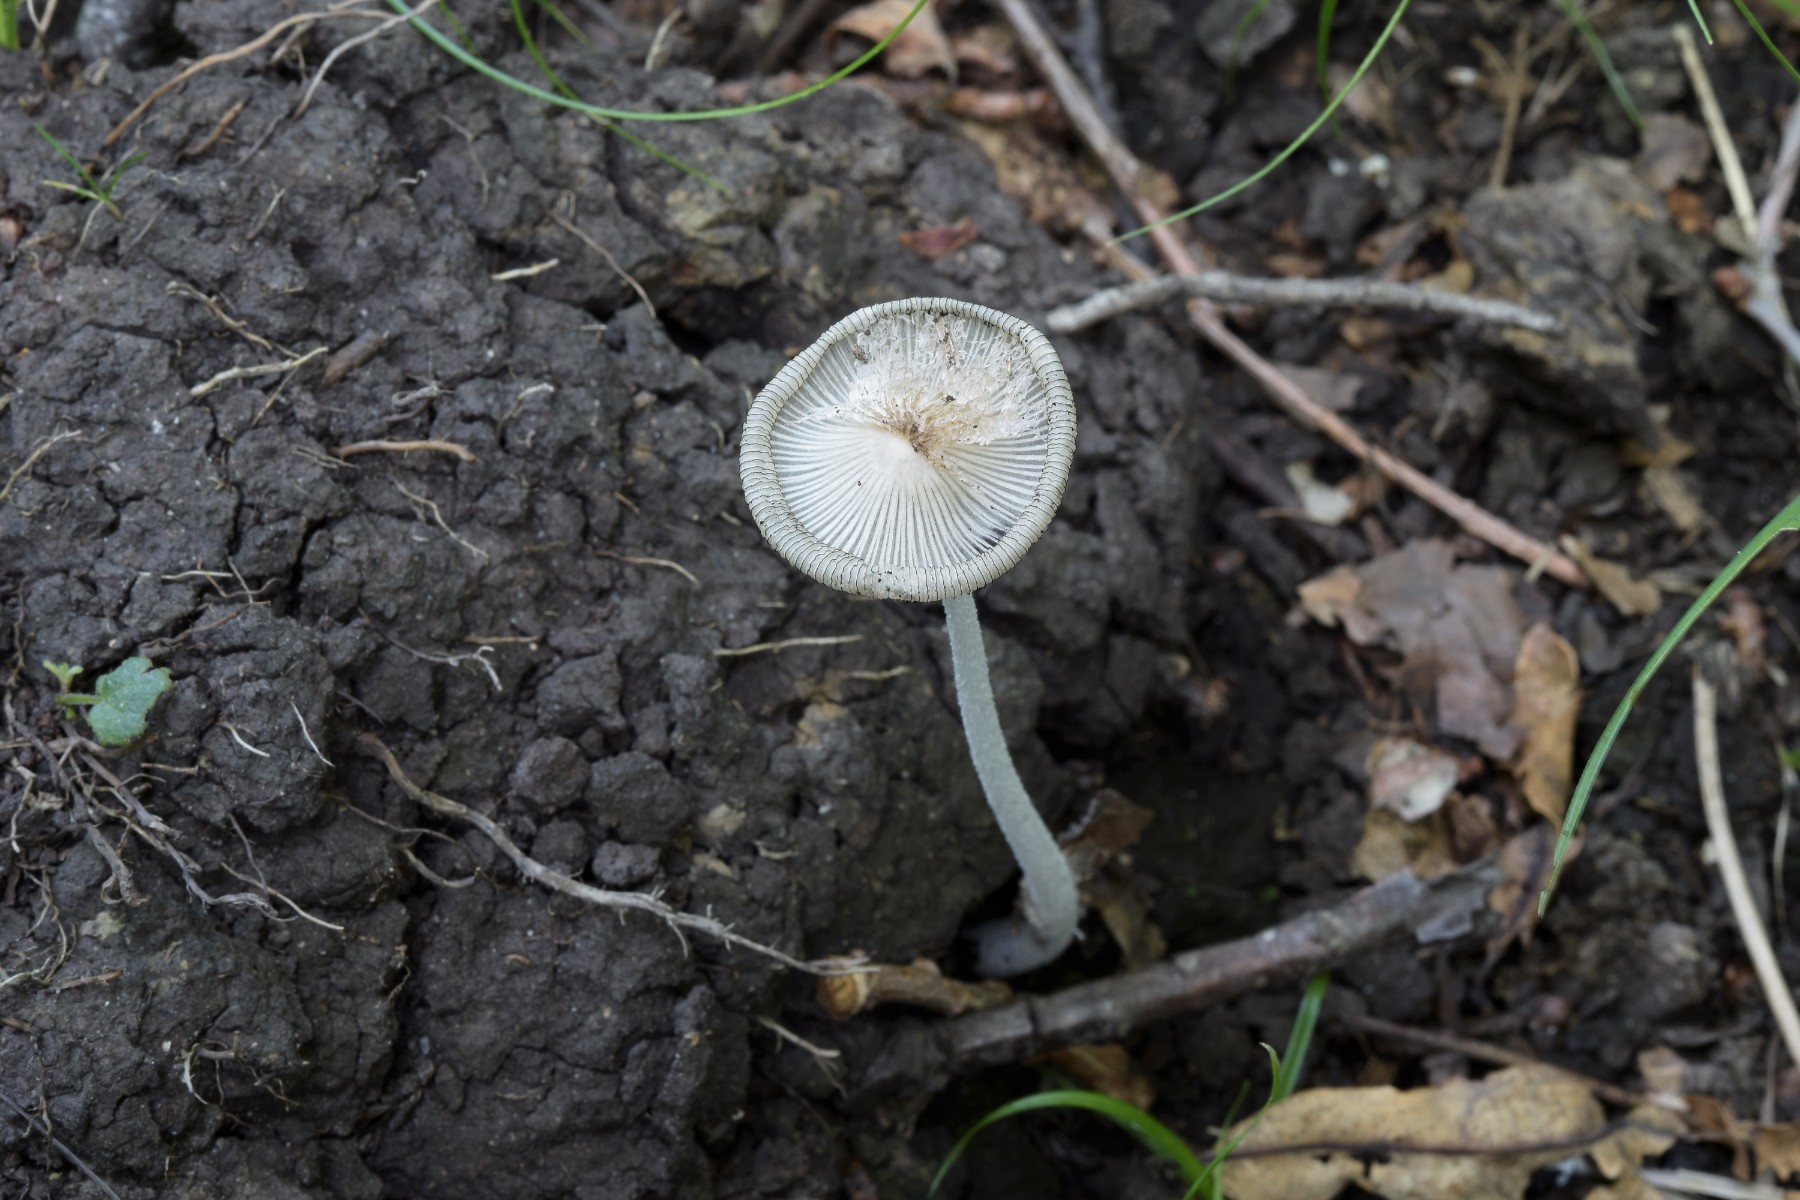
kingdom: Fungi
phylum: Basidiomycota
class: Agaricomycetes
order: Agaricales
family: Psathyrellaceae
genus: Coprinopsis
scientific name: Coprinopsis
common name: blækhat
